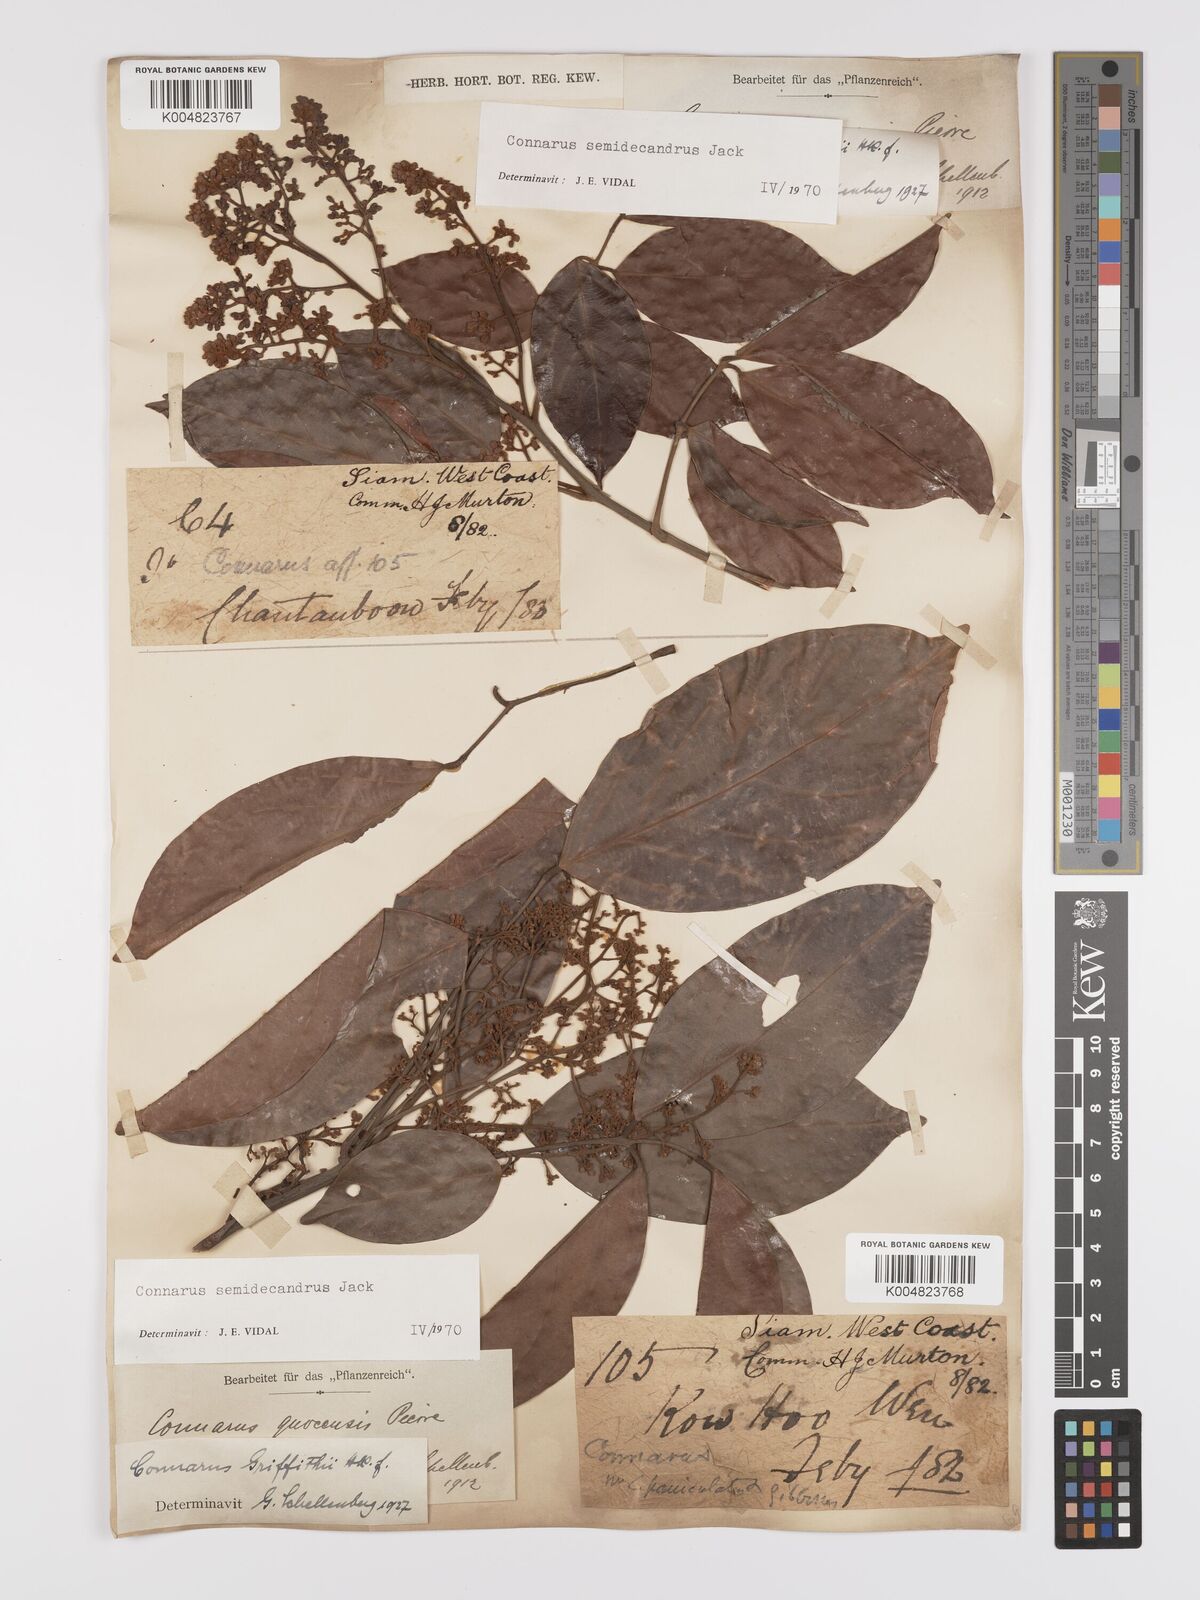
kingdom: Plantae
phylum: Tracheophyta
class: Magnoliopsida
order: Oxalidales
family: Connaraceae
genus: Connarus
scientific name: Connarus semidecandrus
